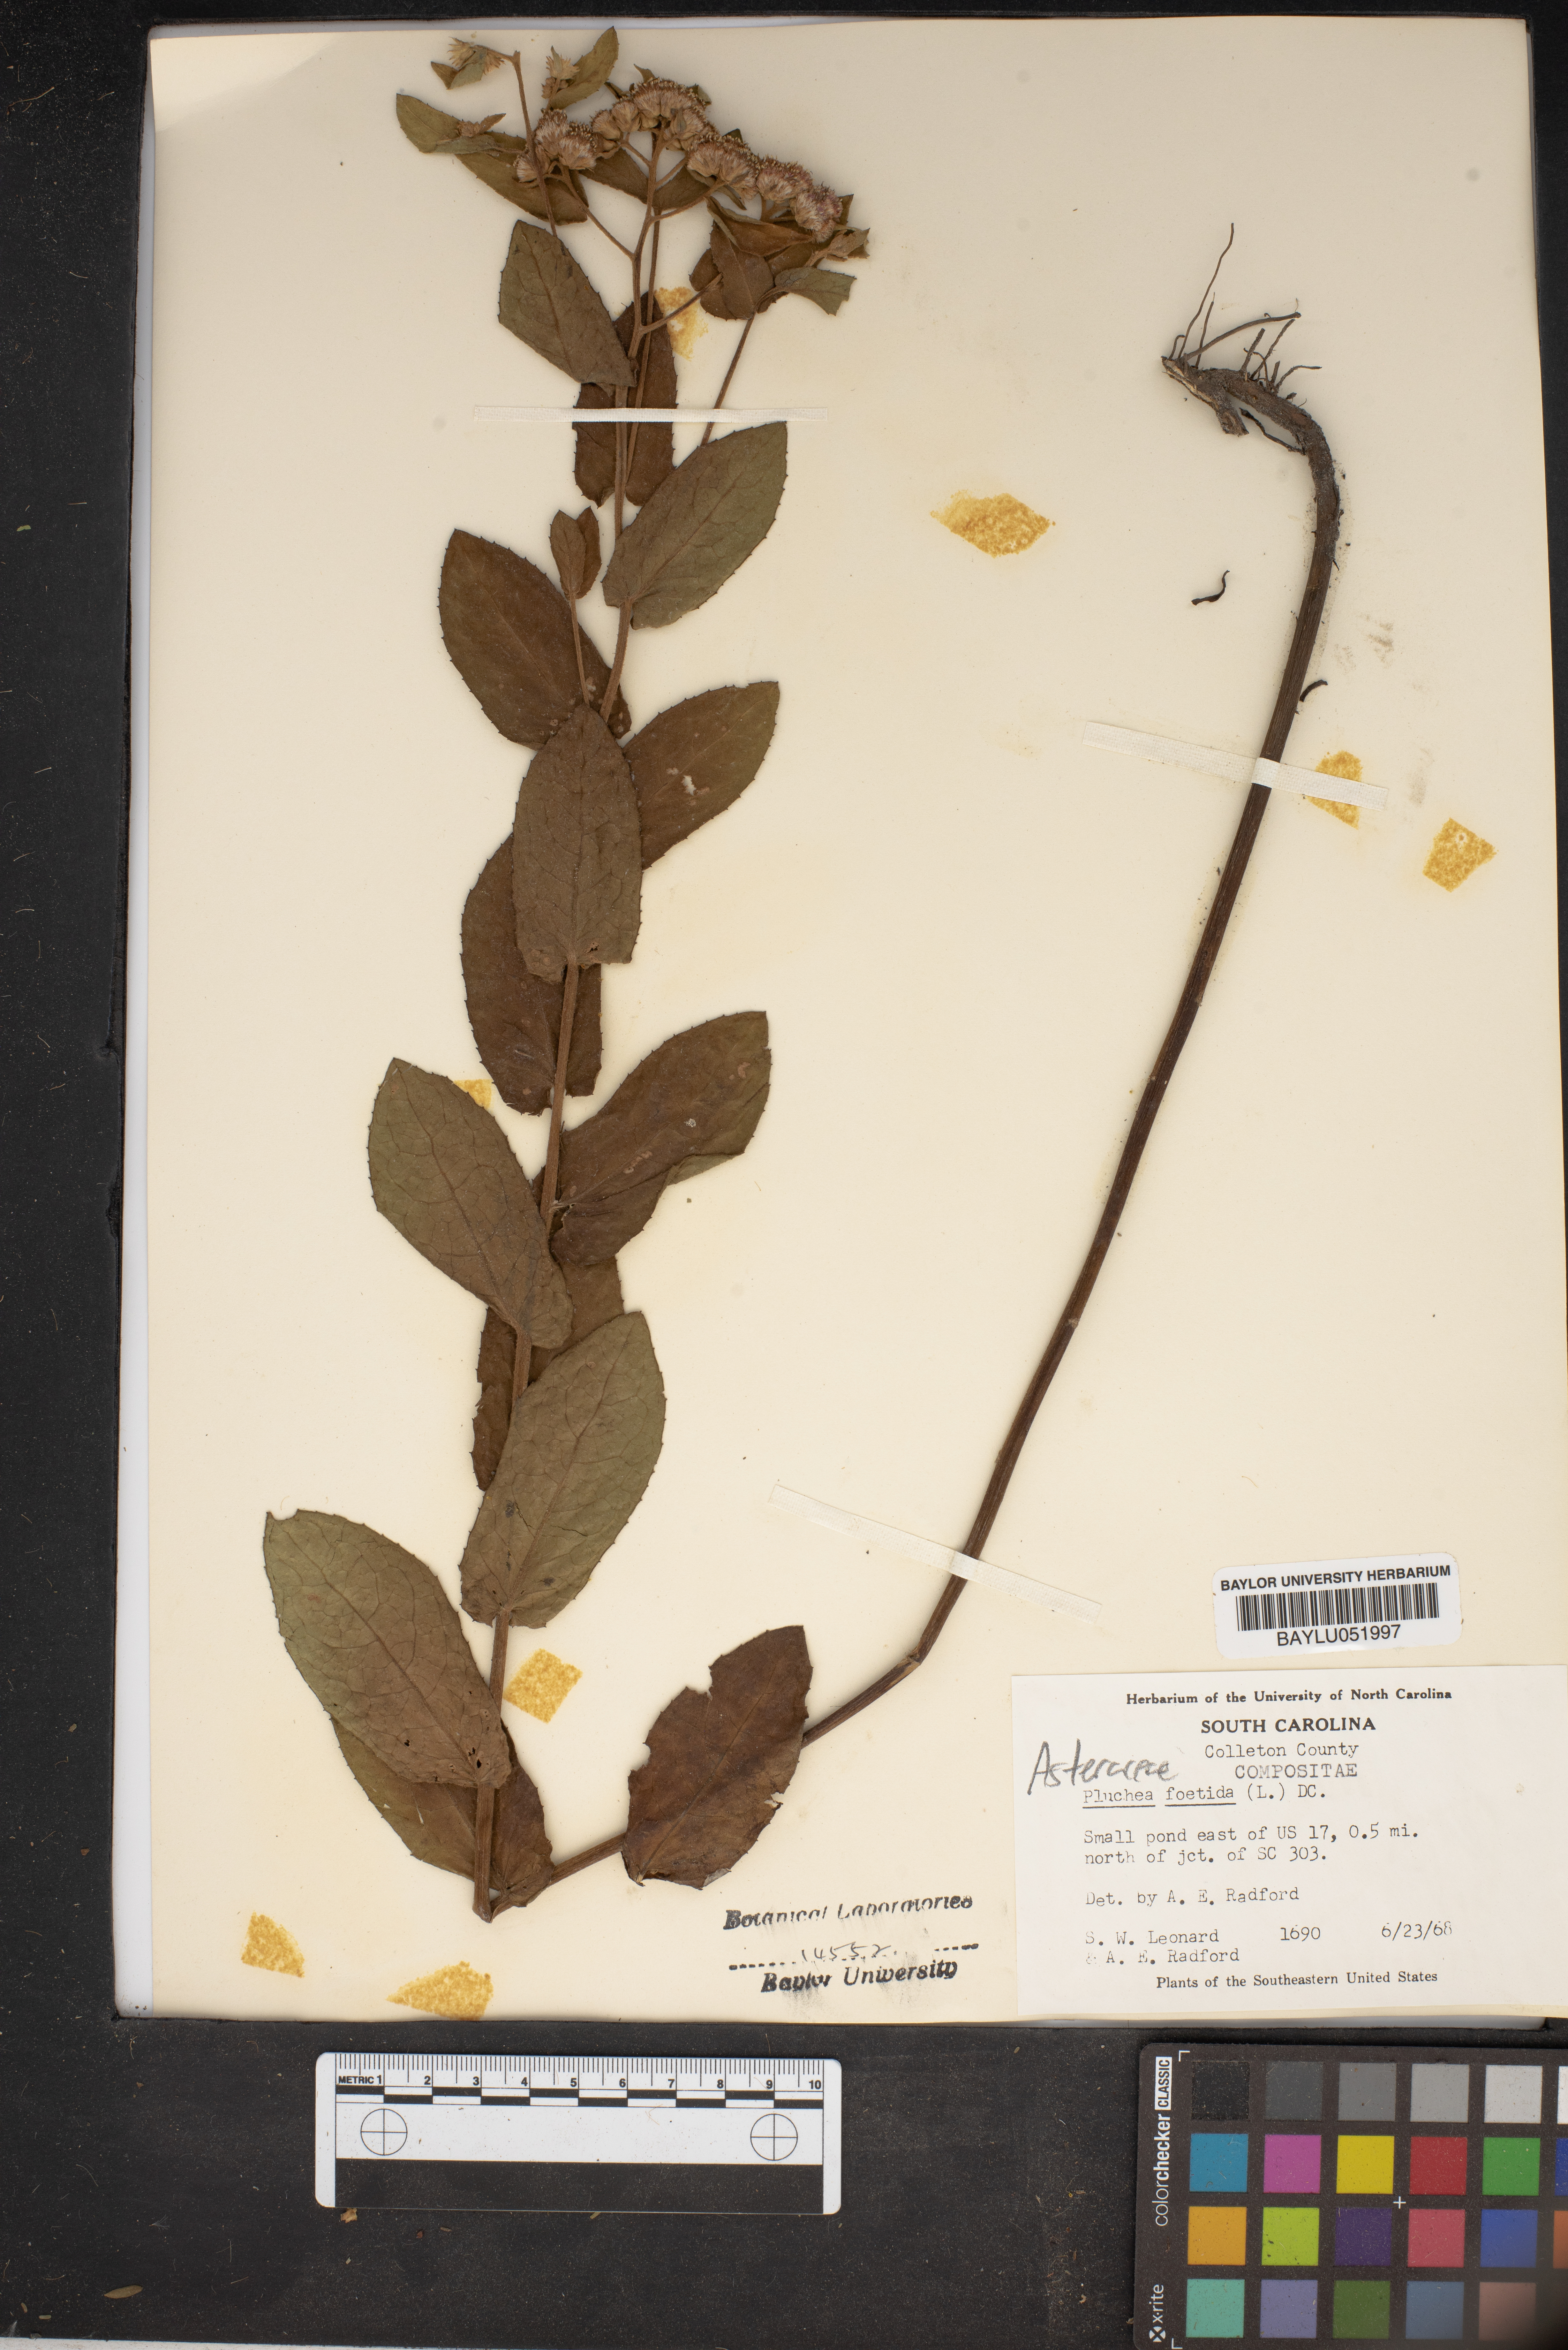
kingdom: Plantae
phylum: Tracheophyta
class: Magnoliopsida
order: Asterales
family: Asteraceae
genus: Pluchea
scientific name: Pluchea foetida
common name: Stinking camphorweed
